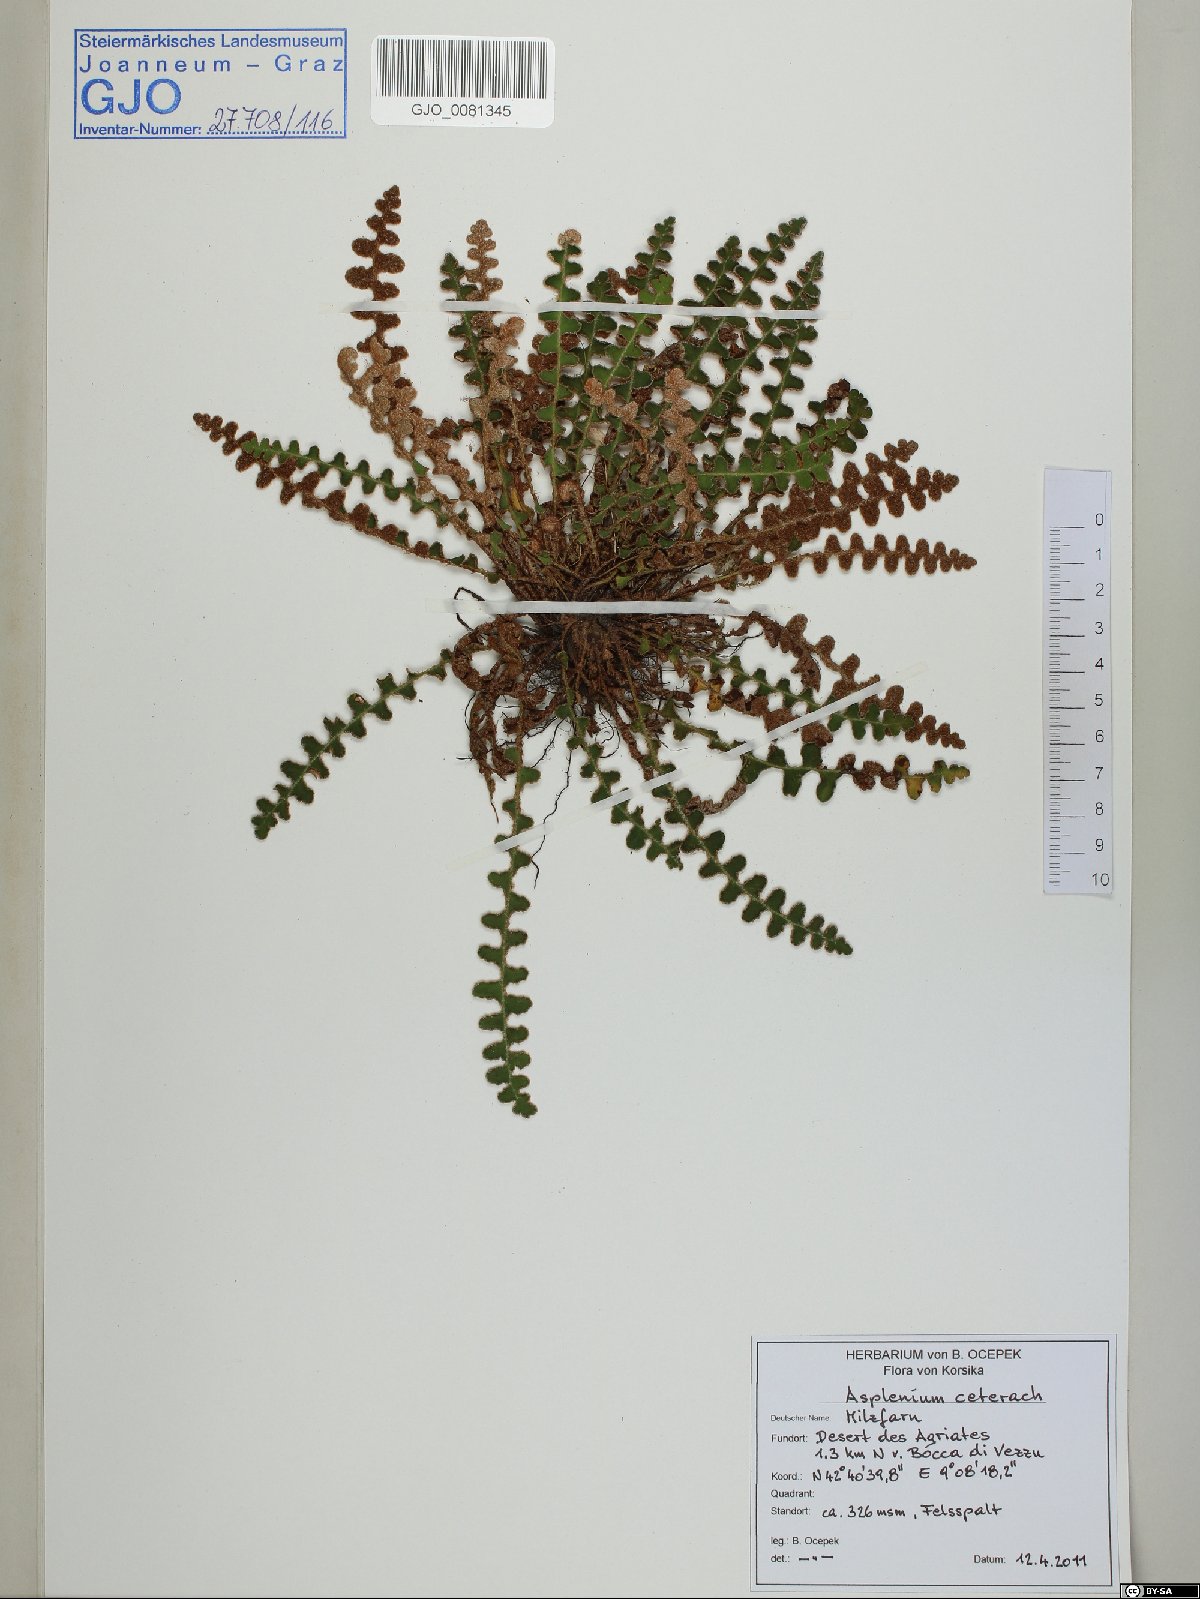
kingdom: Plantae
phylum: Tracheophyta
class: Polypodiopsida
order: Polypodiales
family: Aspleniaceae
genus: Asplenium
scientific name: Asplenium ceterach
